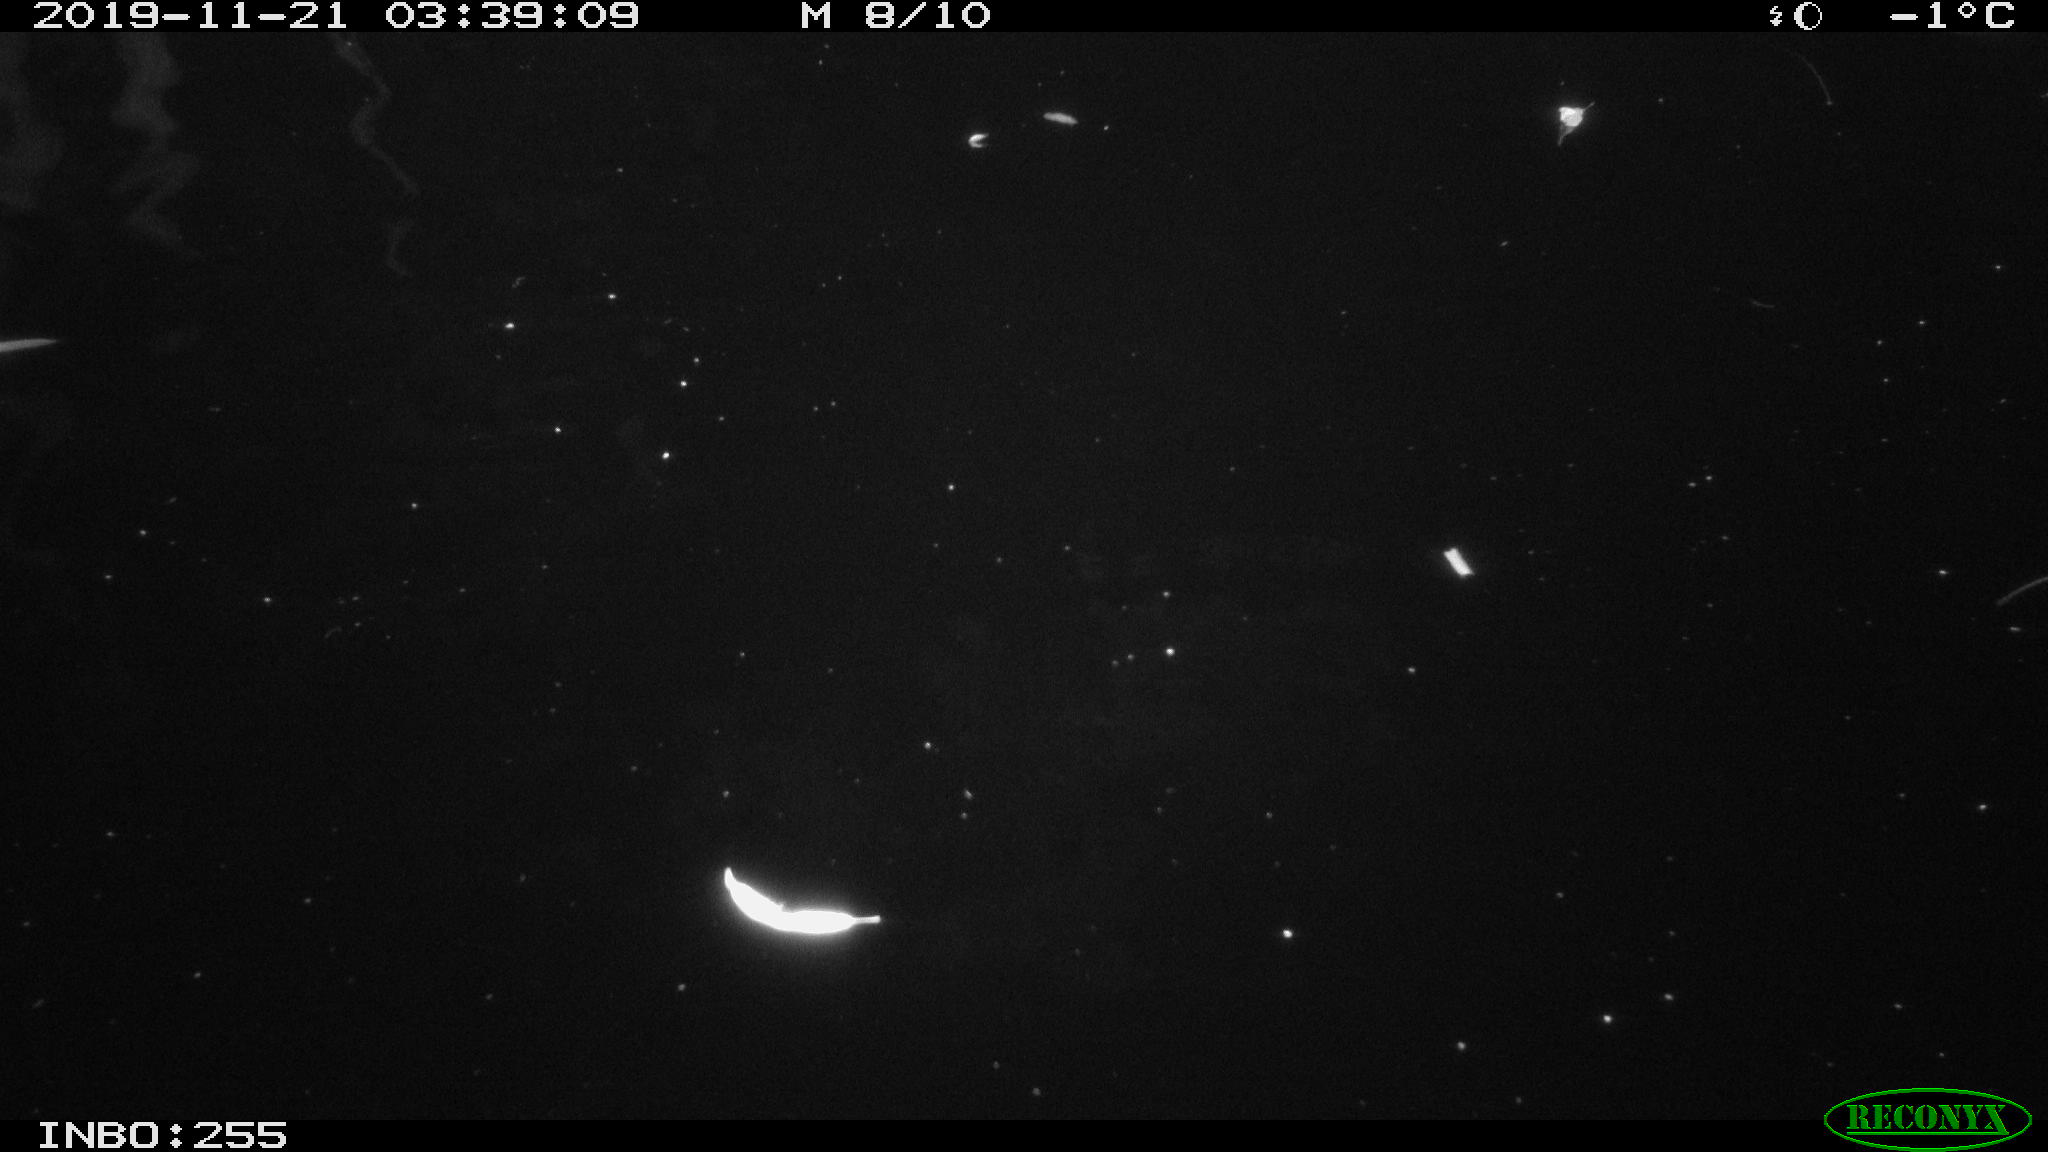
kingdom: Animalia
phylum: Chordata
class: Mammalia
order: Rodentia
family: Cricetidae
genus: Ondatra
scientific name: Ondatra zibethicus
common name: Muskrat
